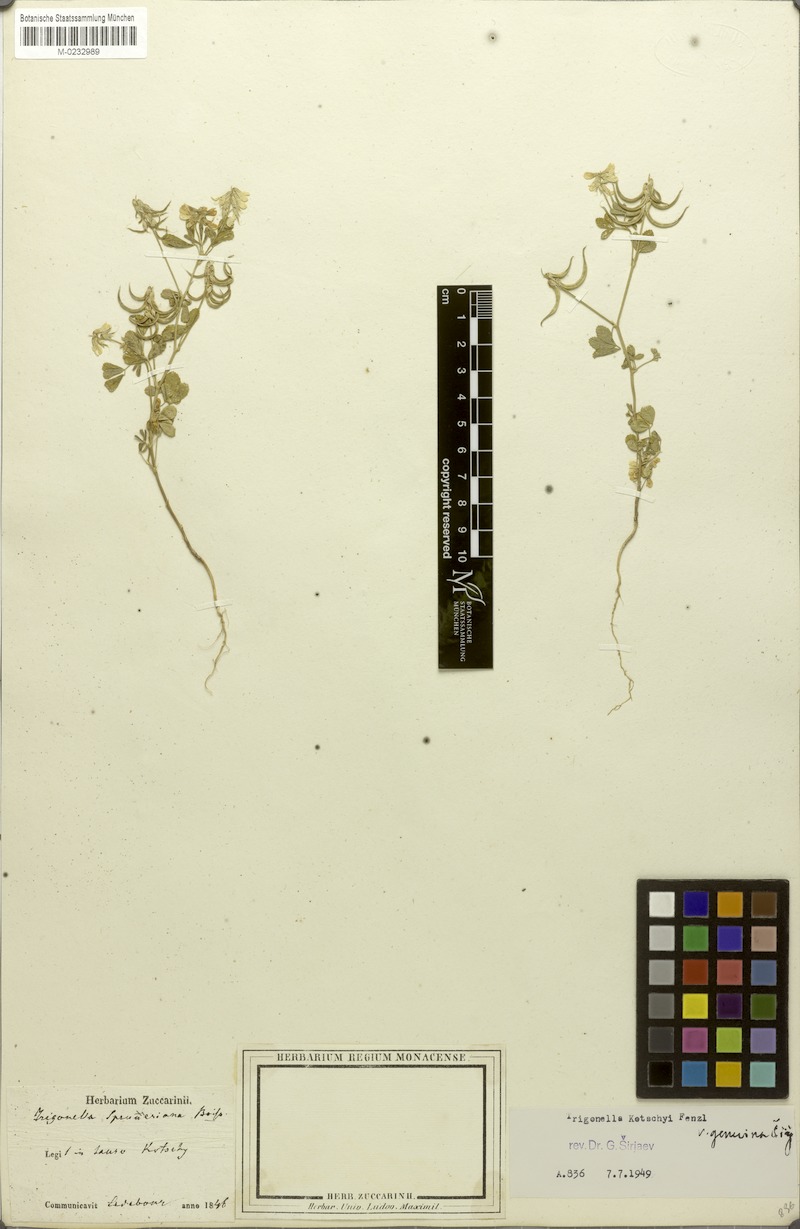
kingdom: Plantae
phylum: Tracheophyta
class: Magnoliopsida
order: Fabales
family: Fabaceae
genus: Trigonella
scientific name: Trigonella spruneriana
